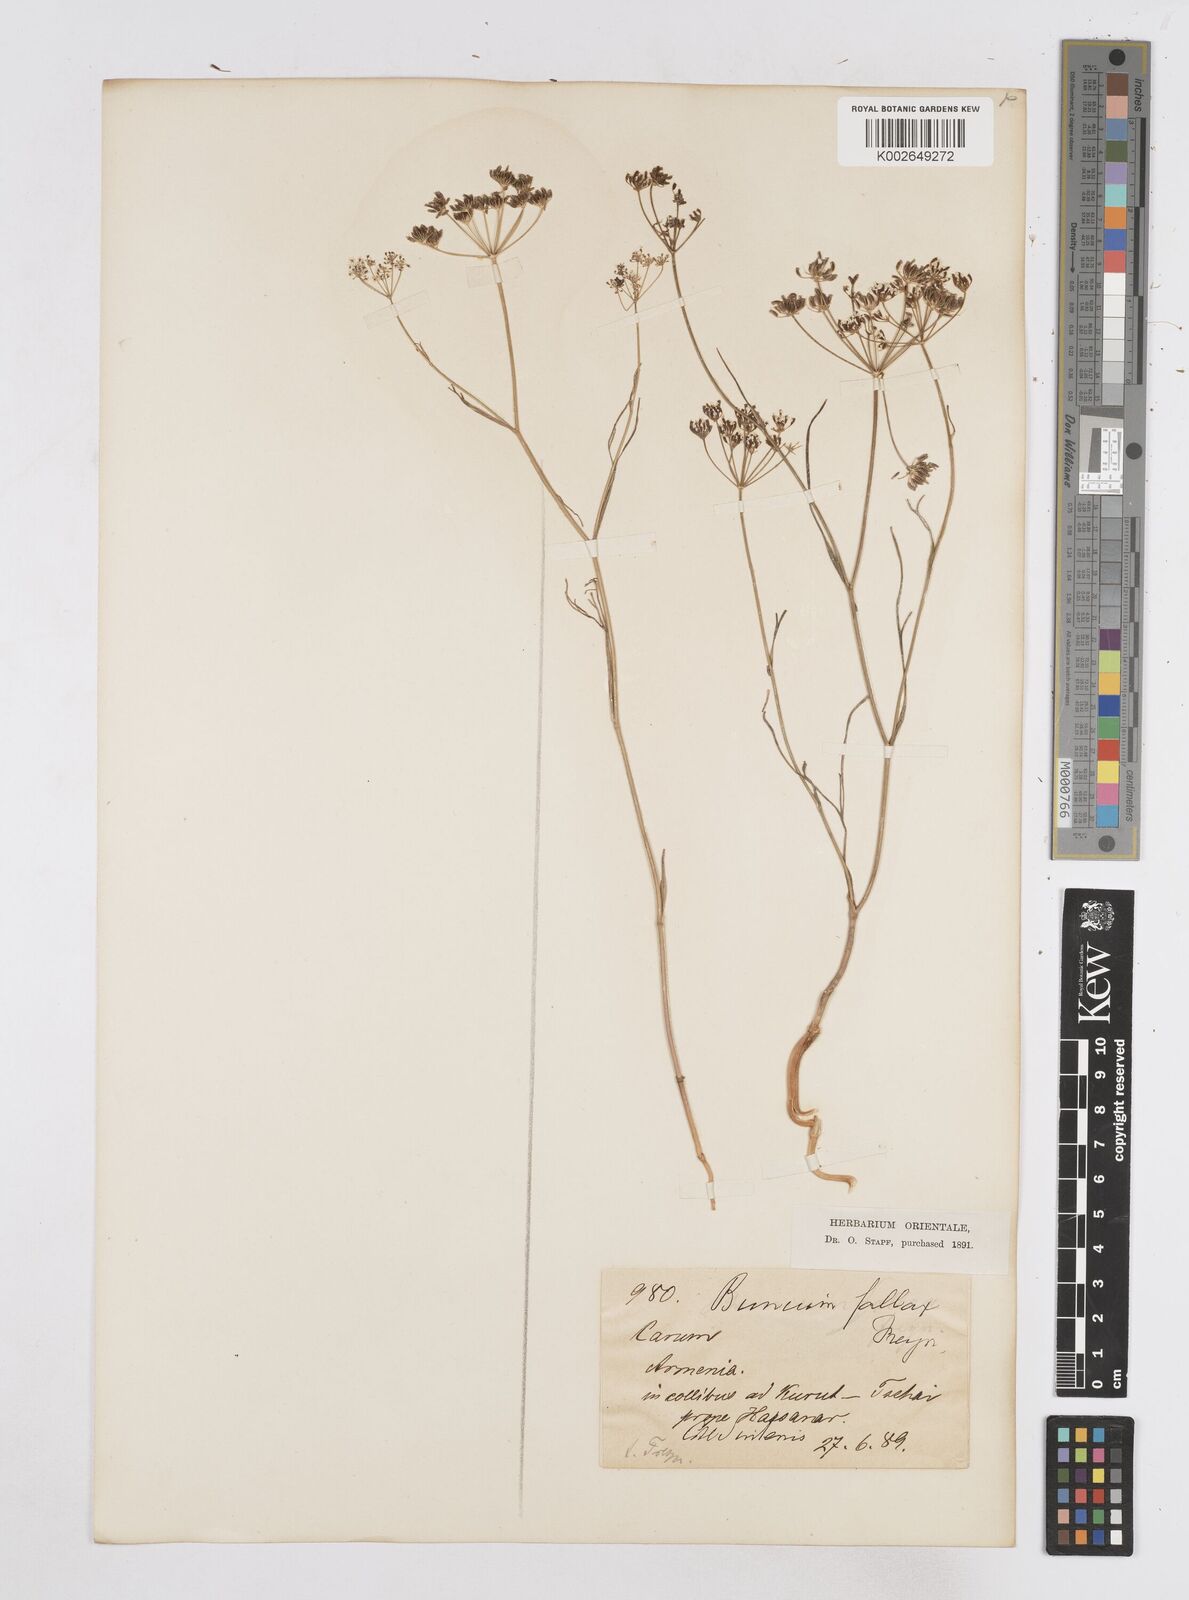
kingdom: Plantae
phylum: Tracheophyta
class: Magnoliopsida
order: Apiales
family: Apiaceae
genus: Bunium
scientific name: Bunium bourgaei
